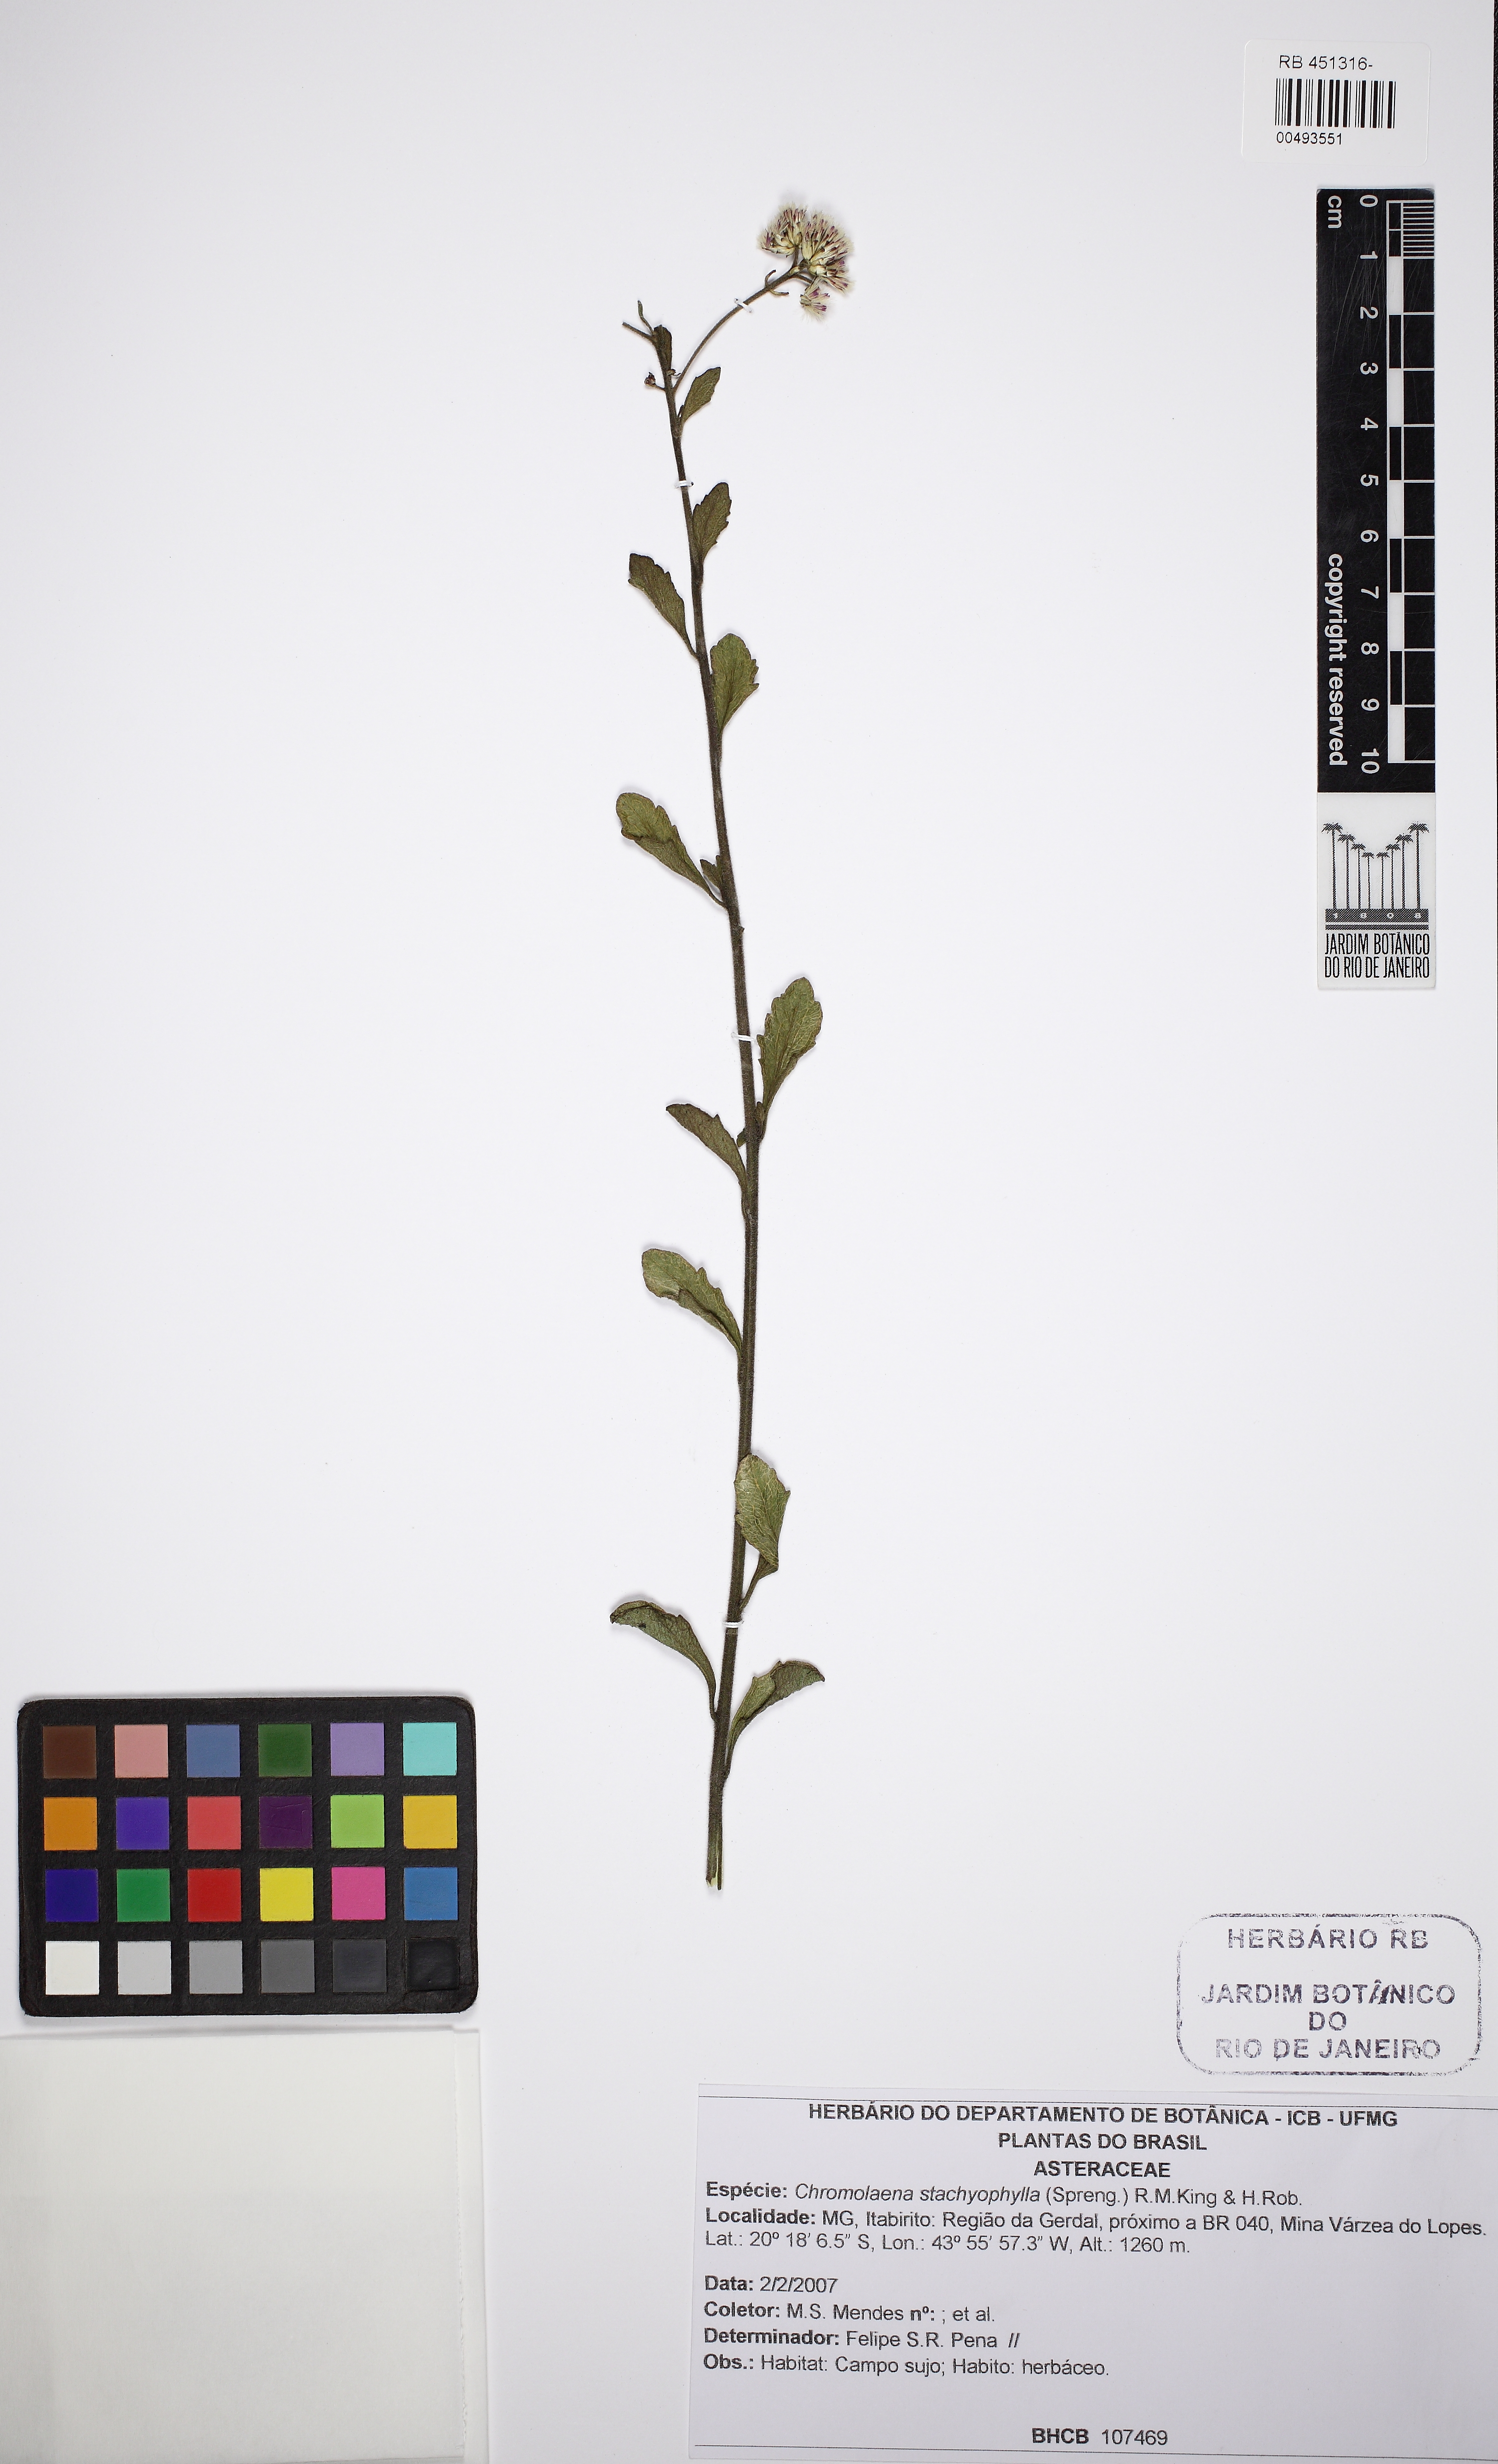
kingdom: Plantae
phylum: Tracheophyta
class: Magnoliopsida
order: Asterales
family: Asteraceae
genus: Chromolaena
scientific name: Chromolaena stachyophylla
